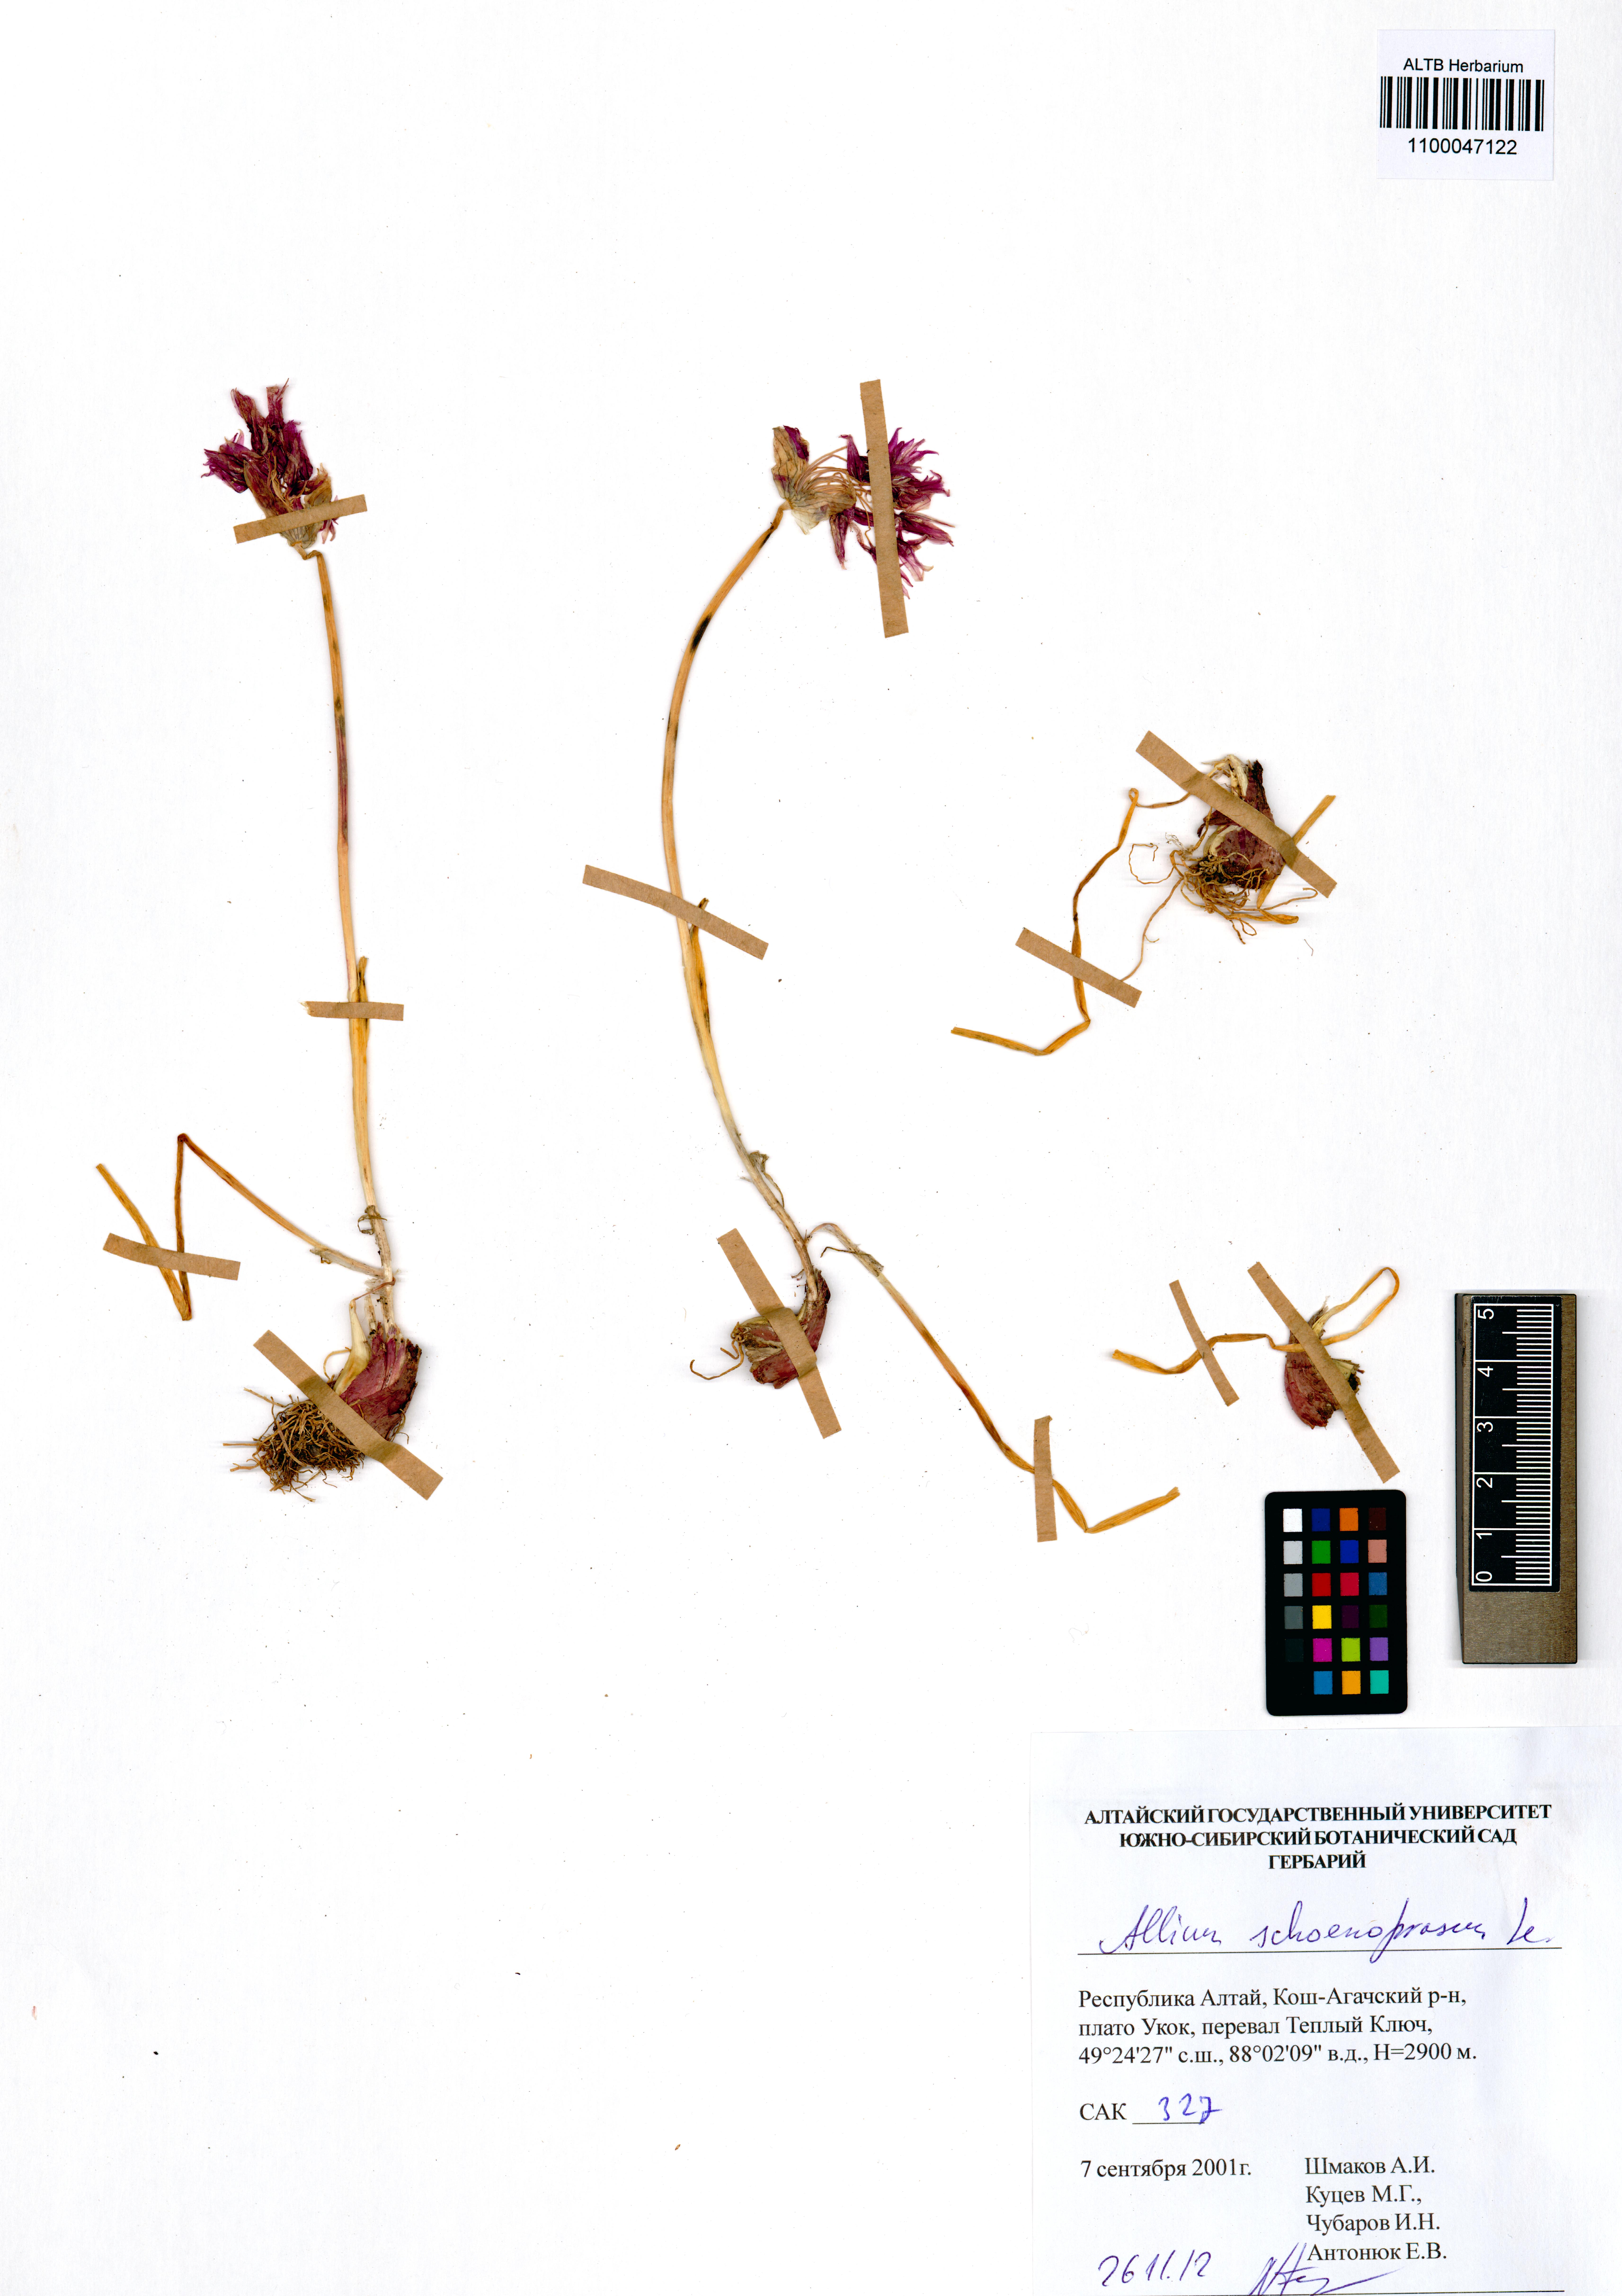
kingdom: Plantae
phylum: Tracheophyta
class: Liliopsida
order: Asparagales
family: Amaryllidaceae
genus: Allium
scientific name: Allium schoenoprasum
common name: Chives
